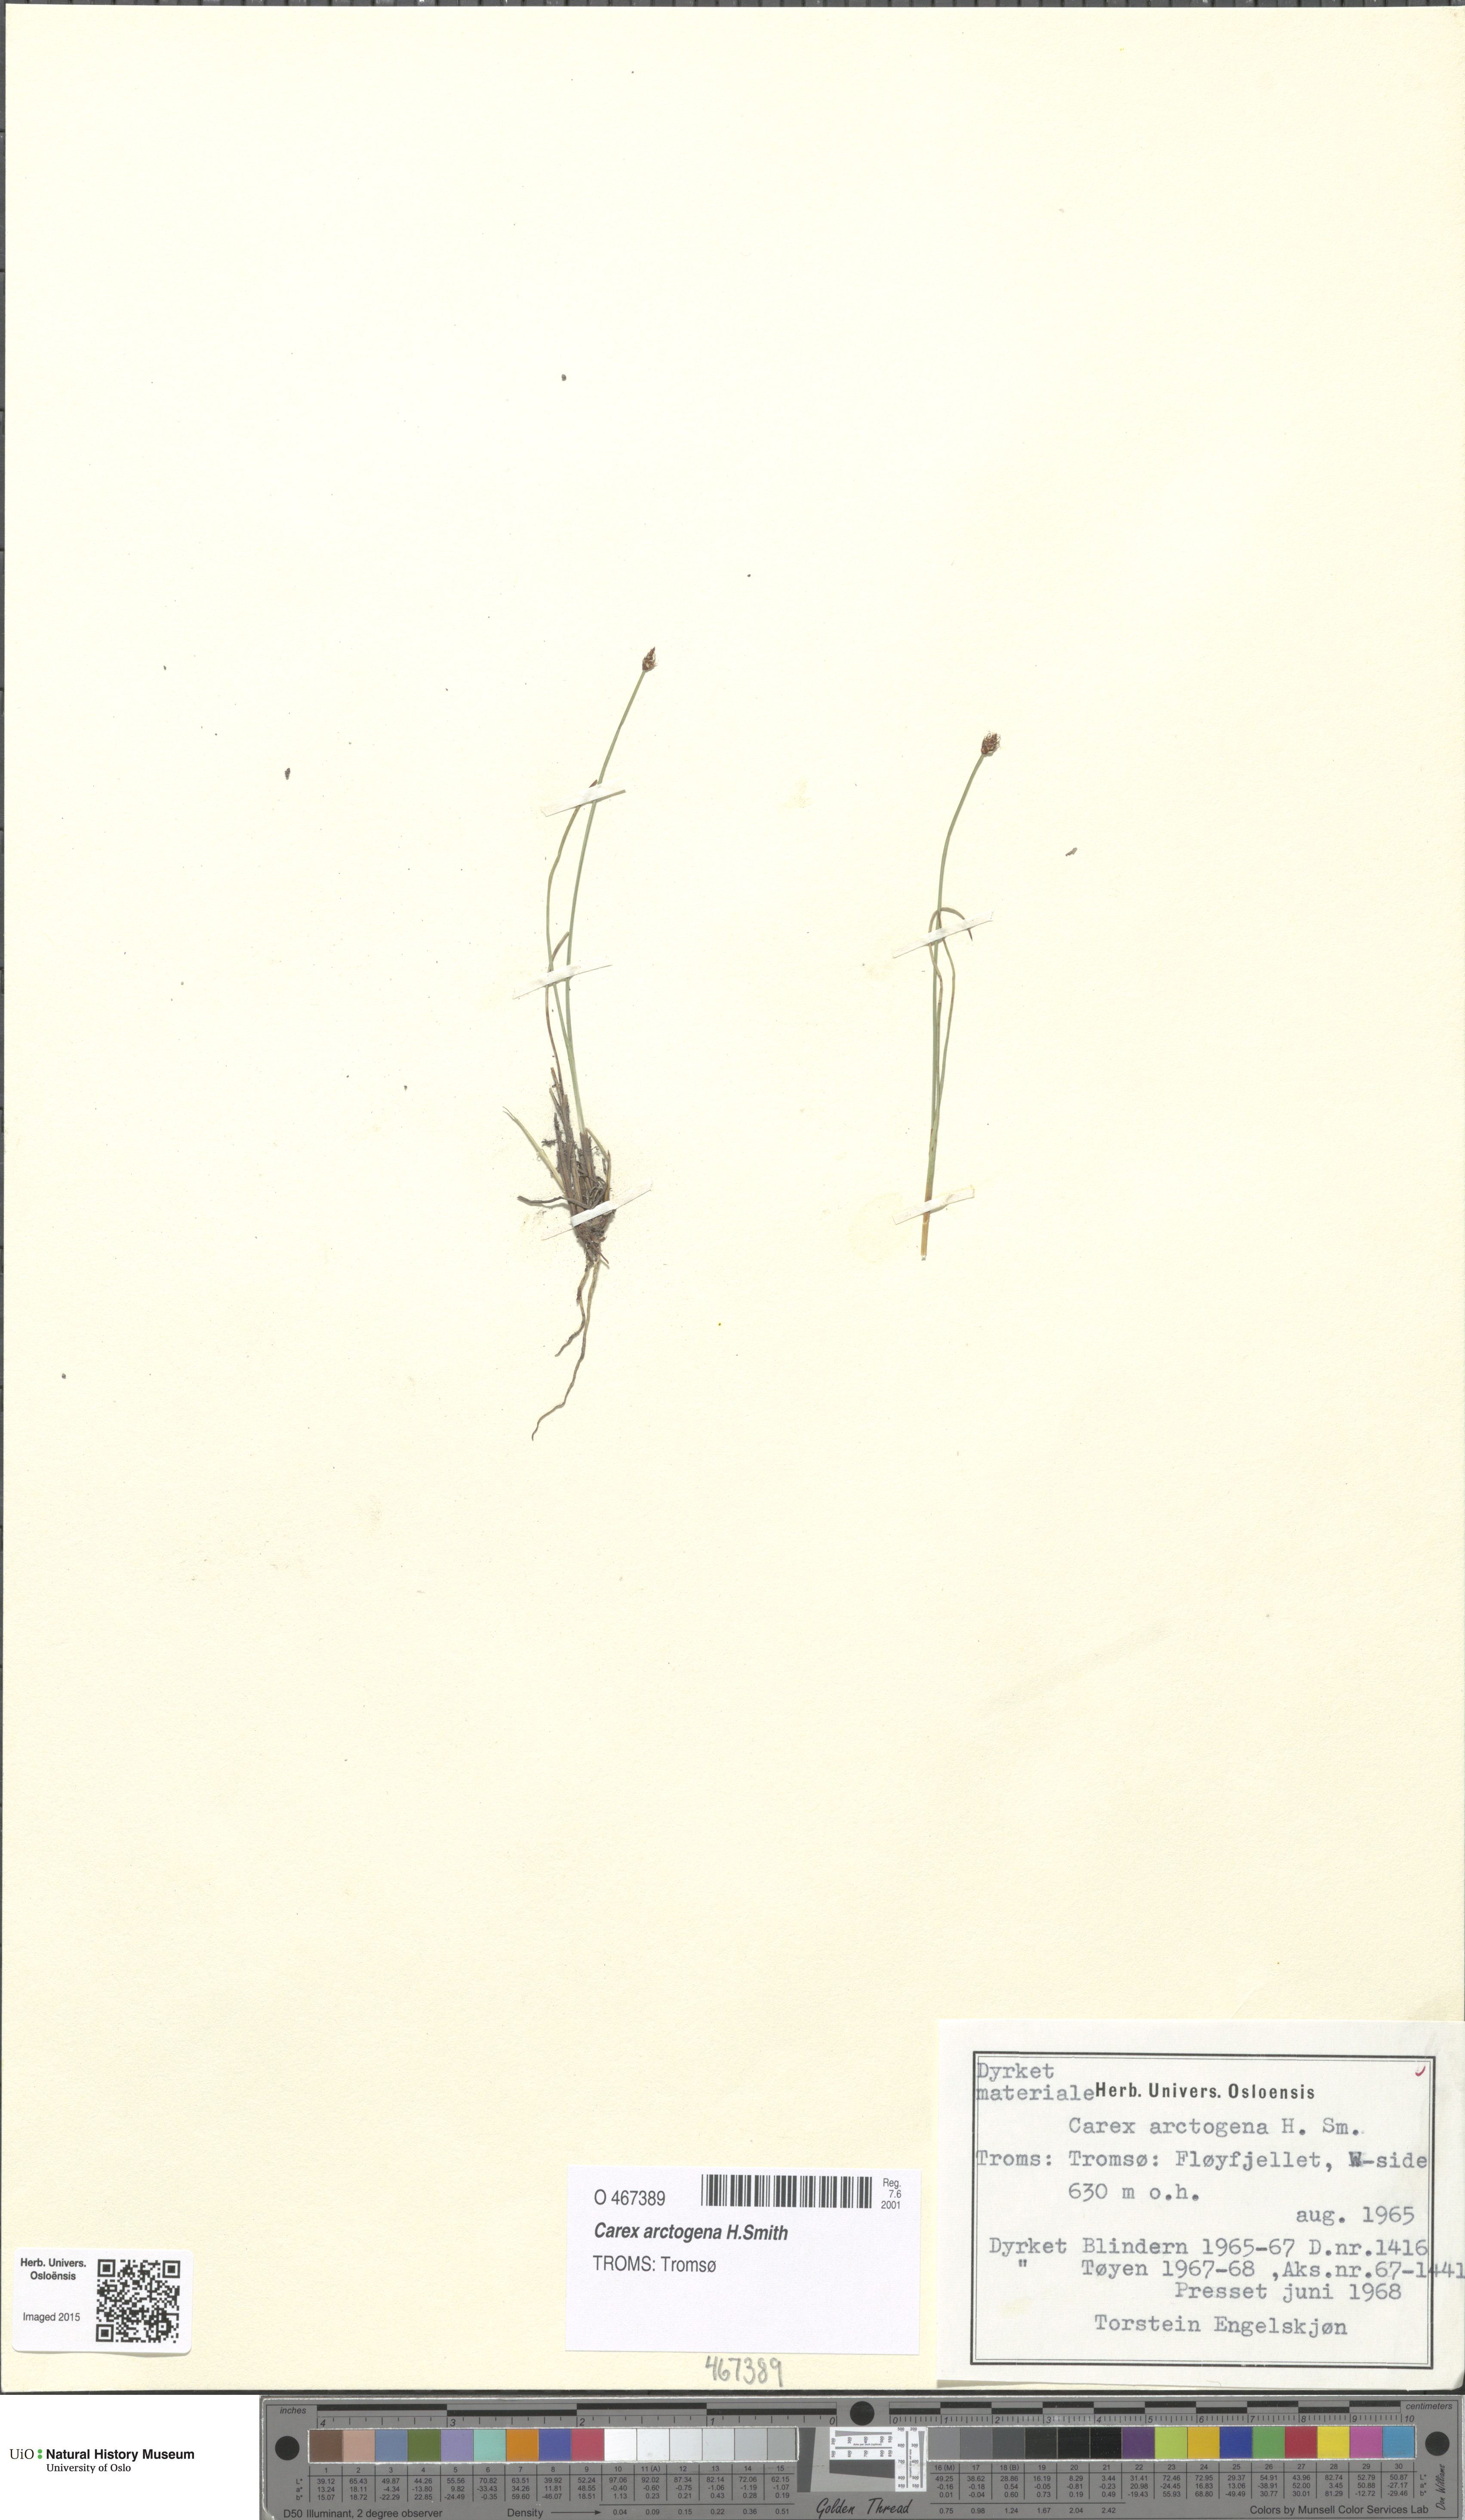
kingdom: Plantae
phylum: Tracheophyta
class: Liliopsida
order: Poales
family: Cyperaceae
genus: Carex
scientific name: Carex arctogena
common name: Black sedge
